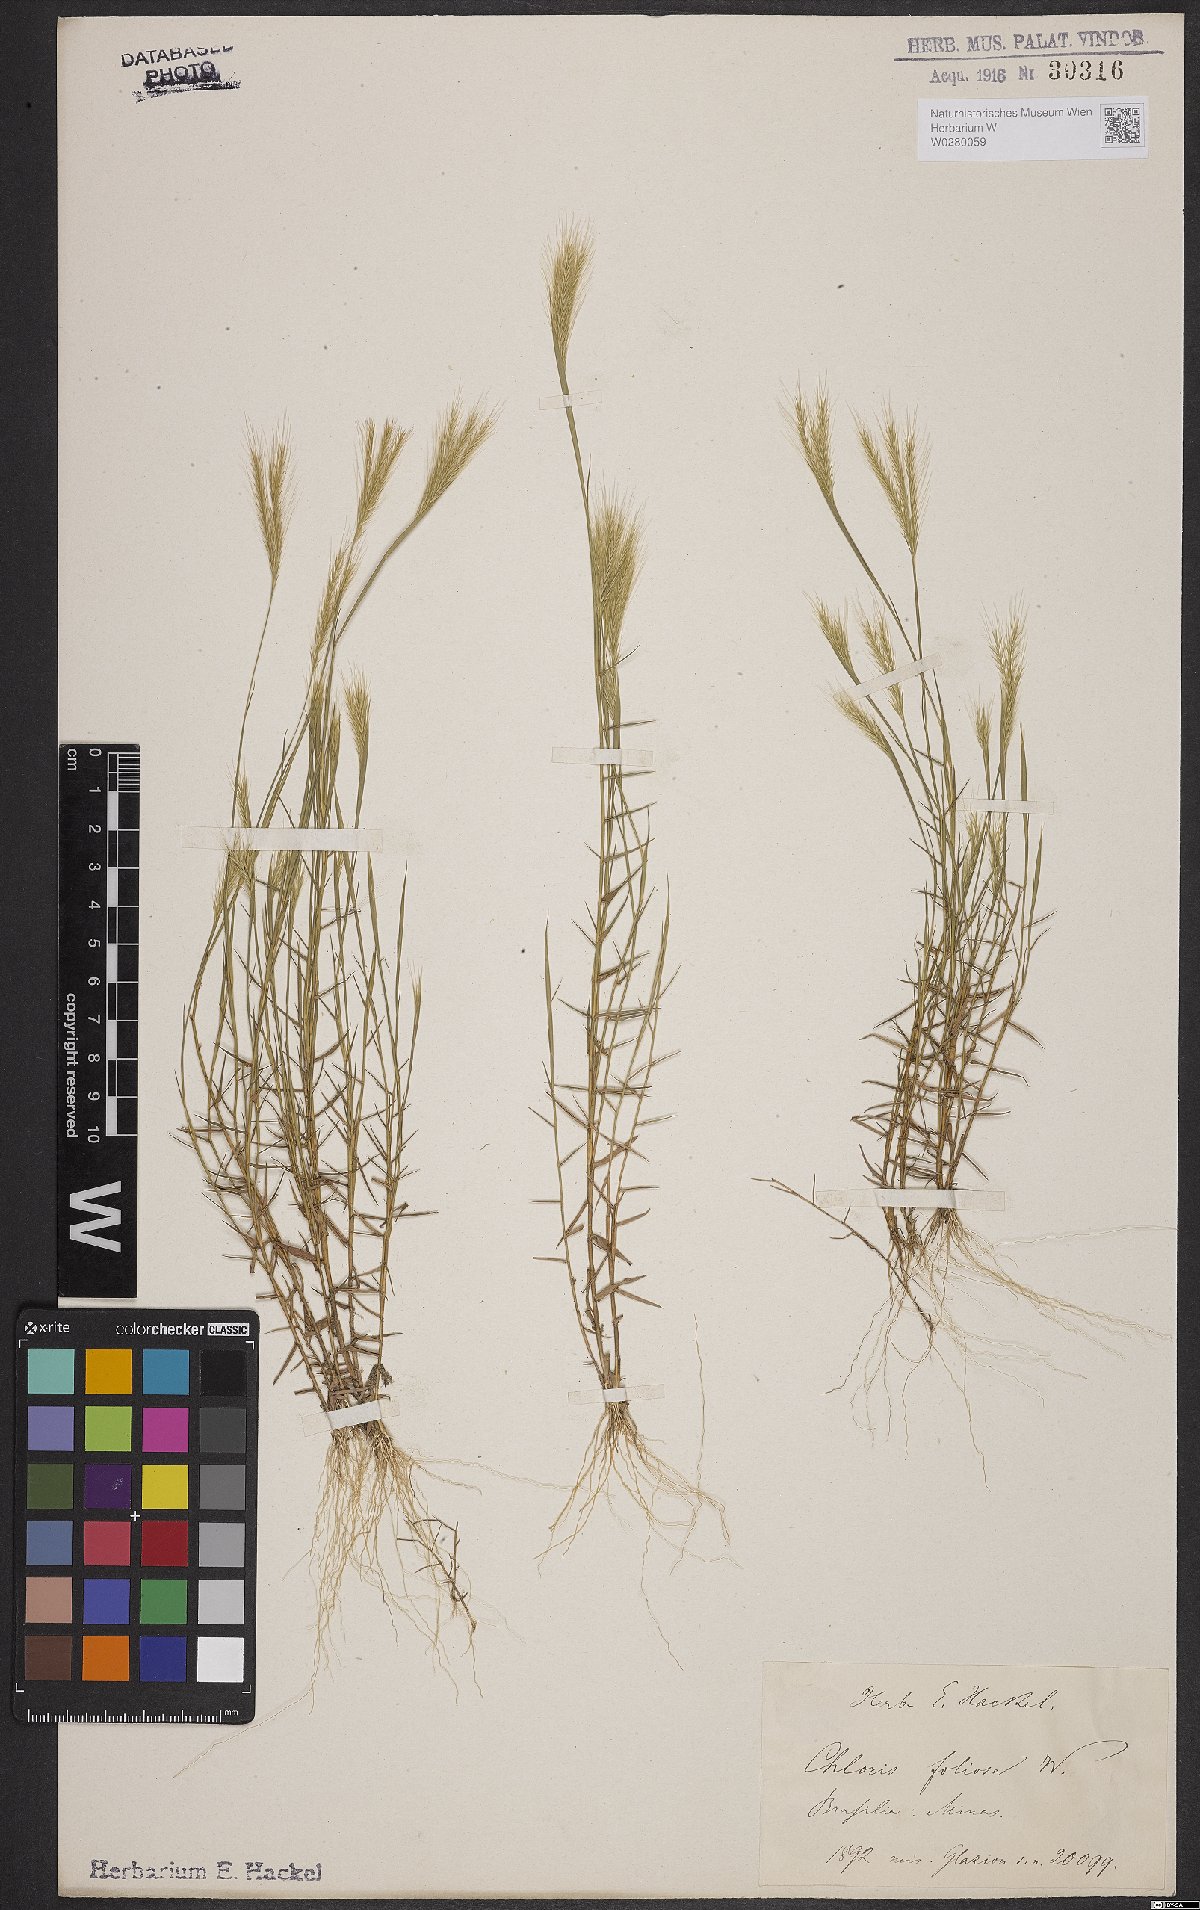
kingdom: Plantae
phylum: Tracheophyta
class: Liliopsida
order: Poales
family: Poaceae
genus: Gymnopogon
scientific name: Gymnopogon foliosus
